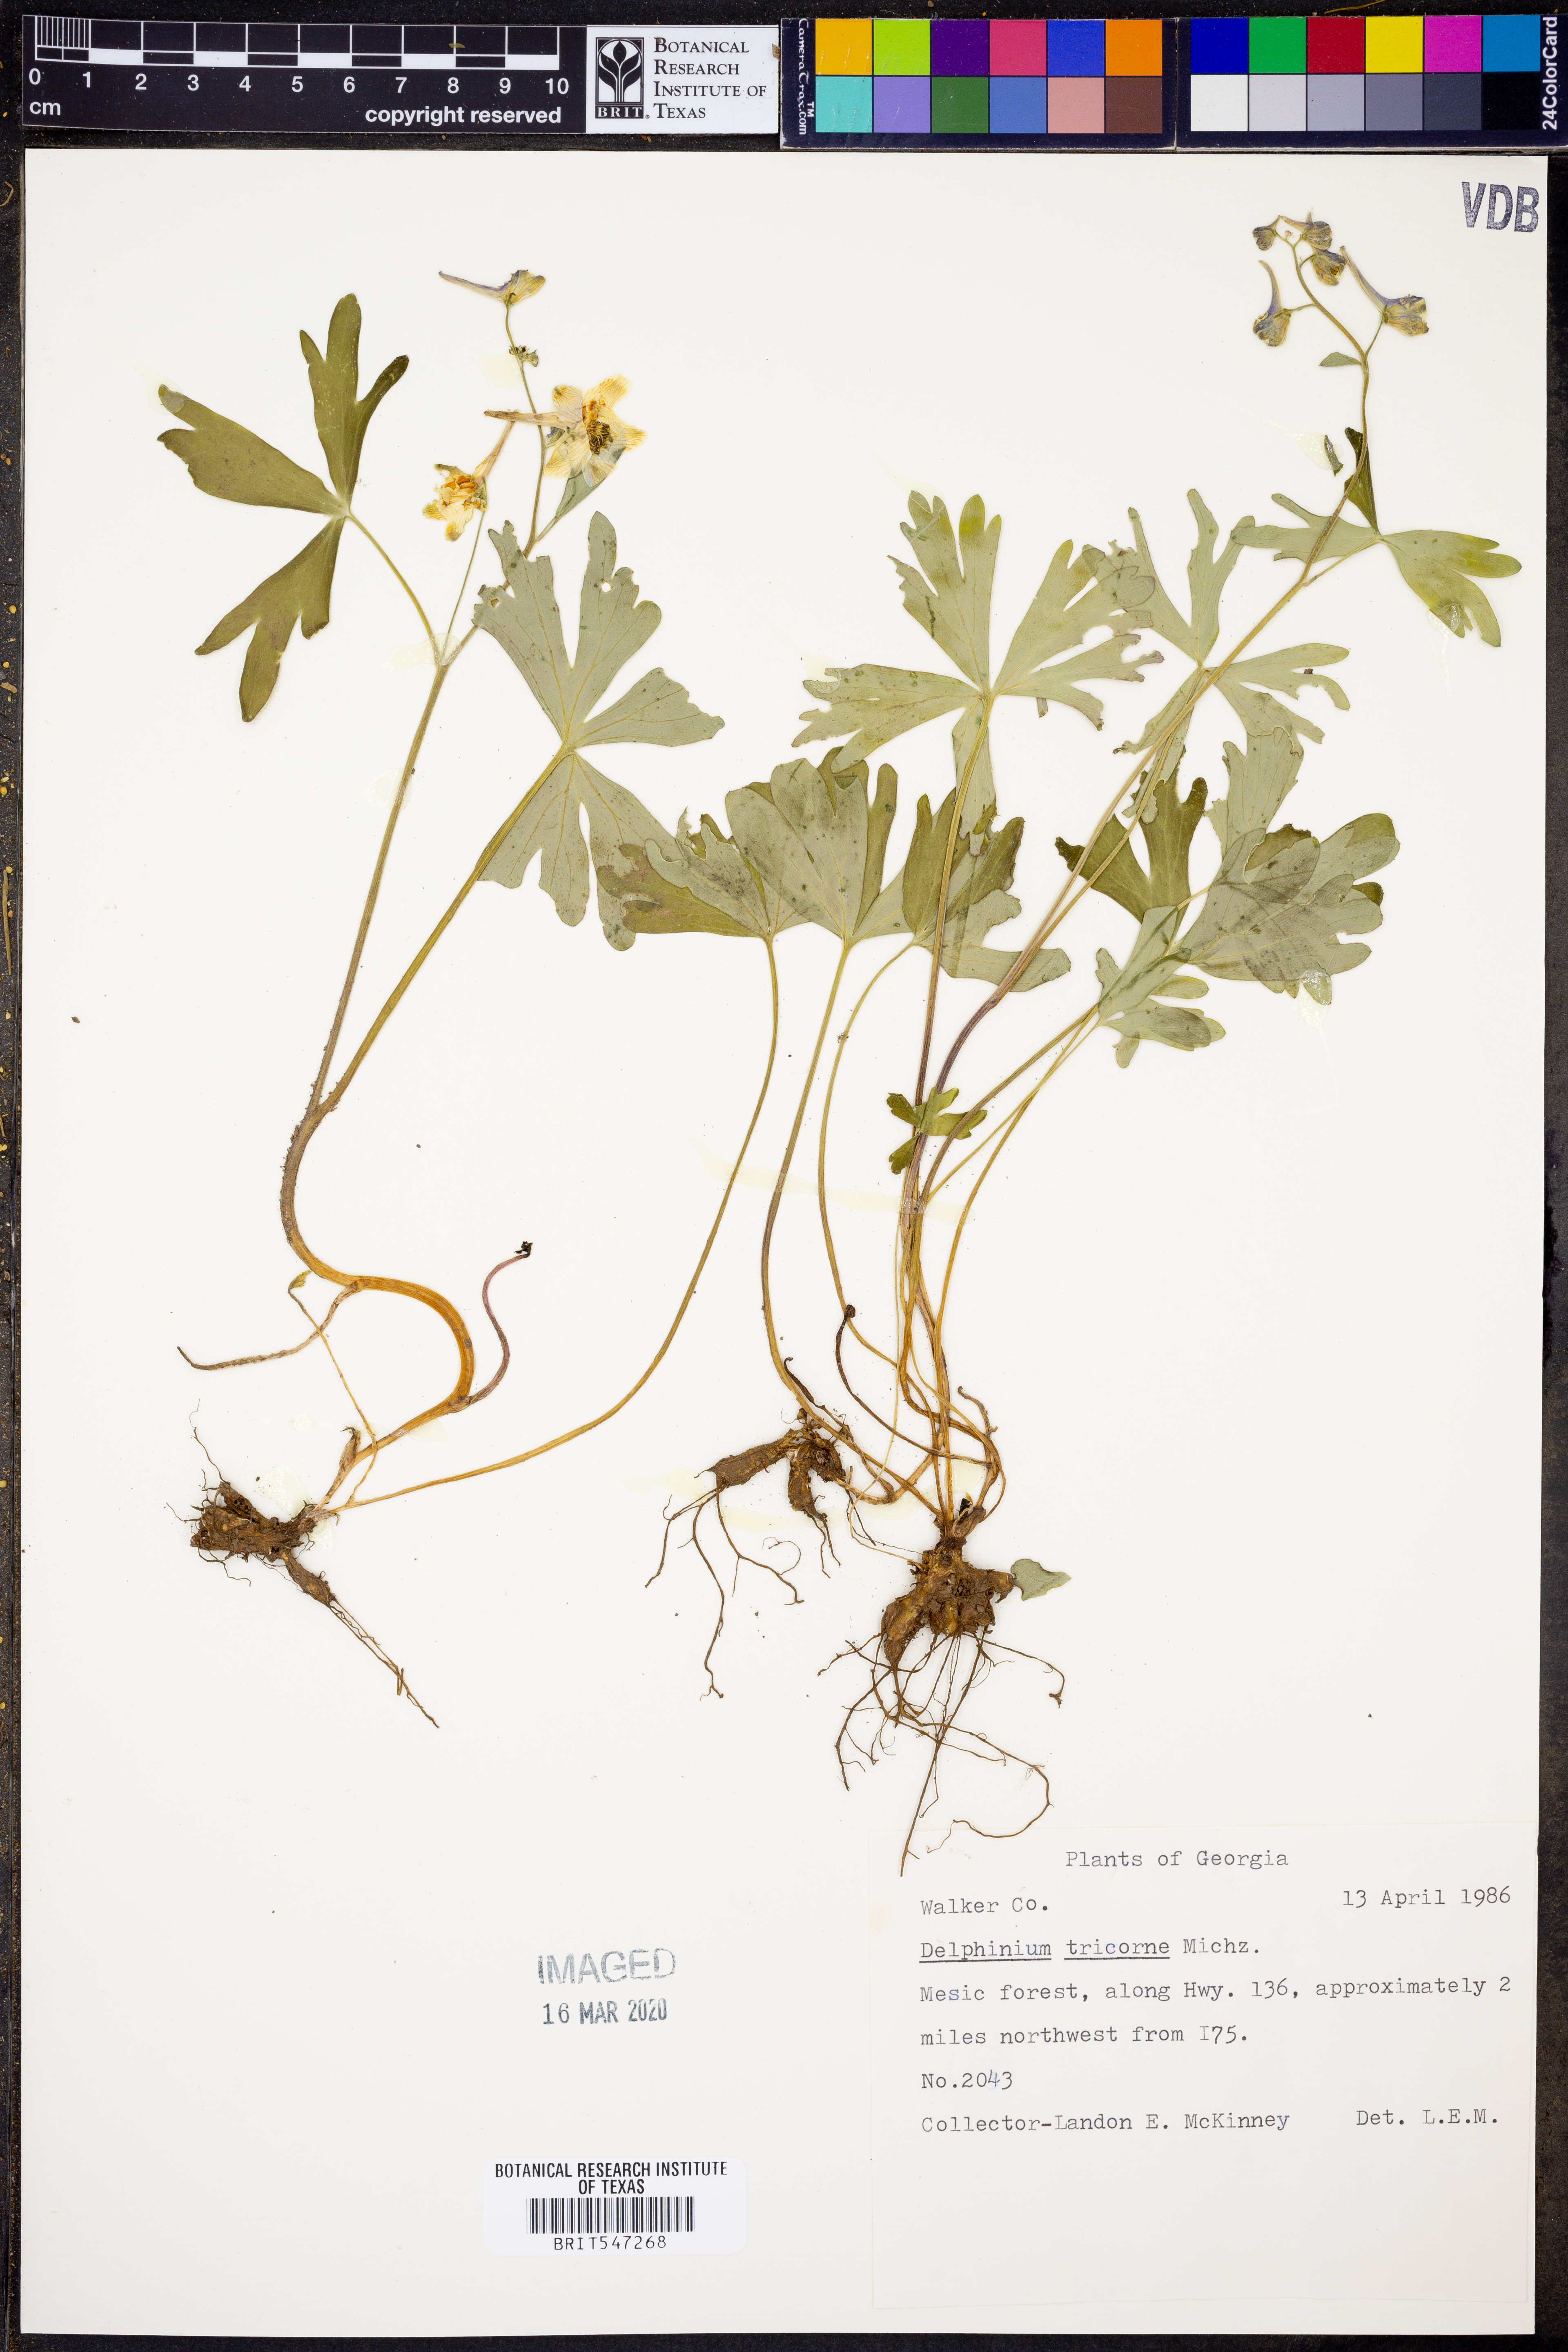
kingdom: Plantae
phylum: Tracheophyta
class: Magnoliopsida
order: Ranunculales
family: Ranunculaceae
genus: Delphinium
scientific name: Delphinium tricorne
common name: Dwarf larkspur
